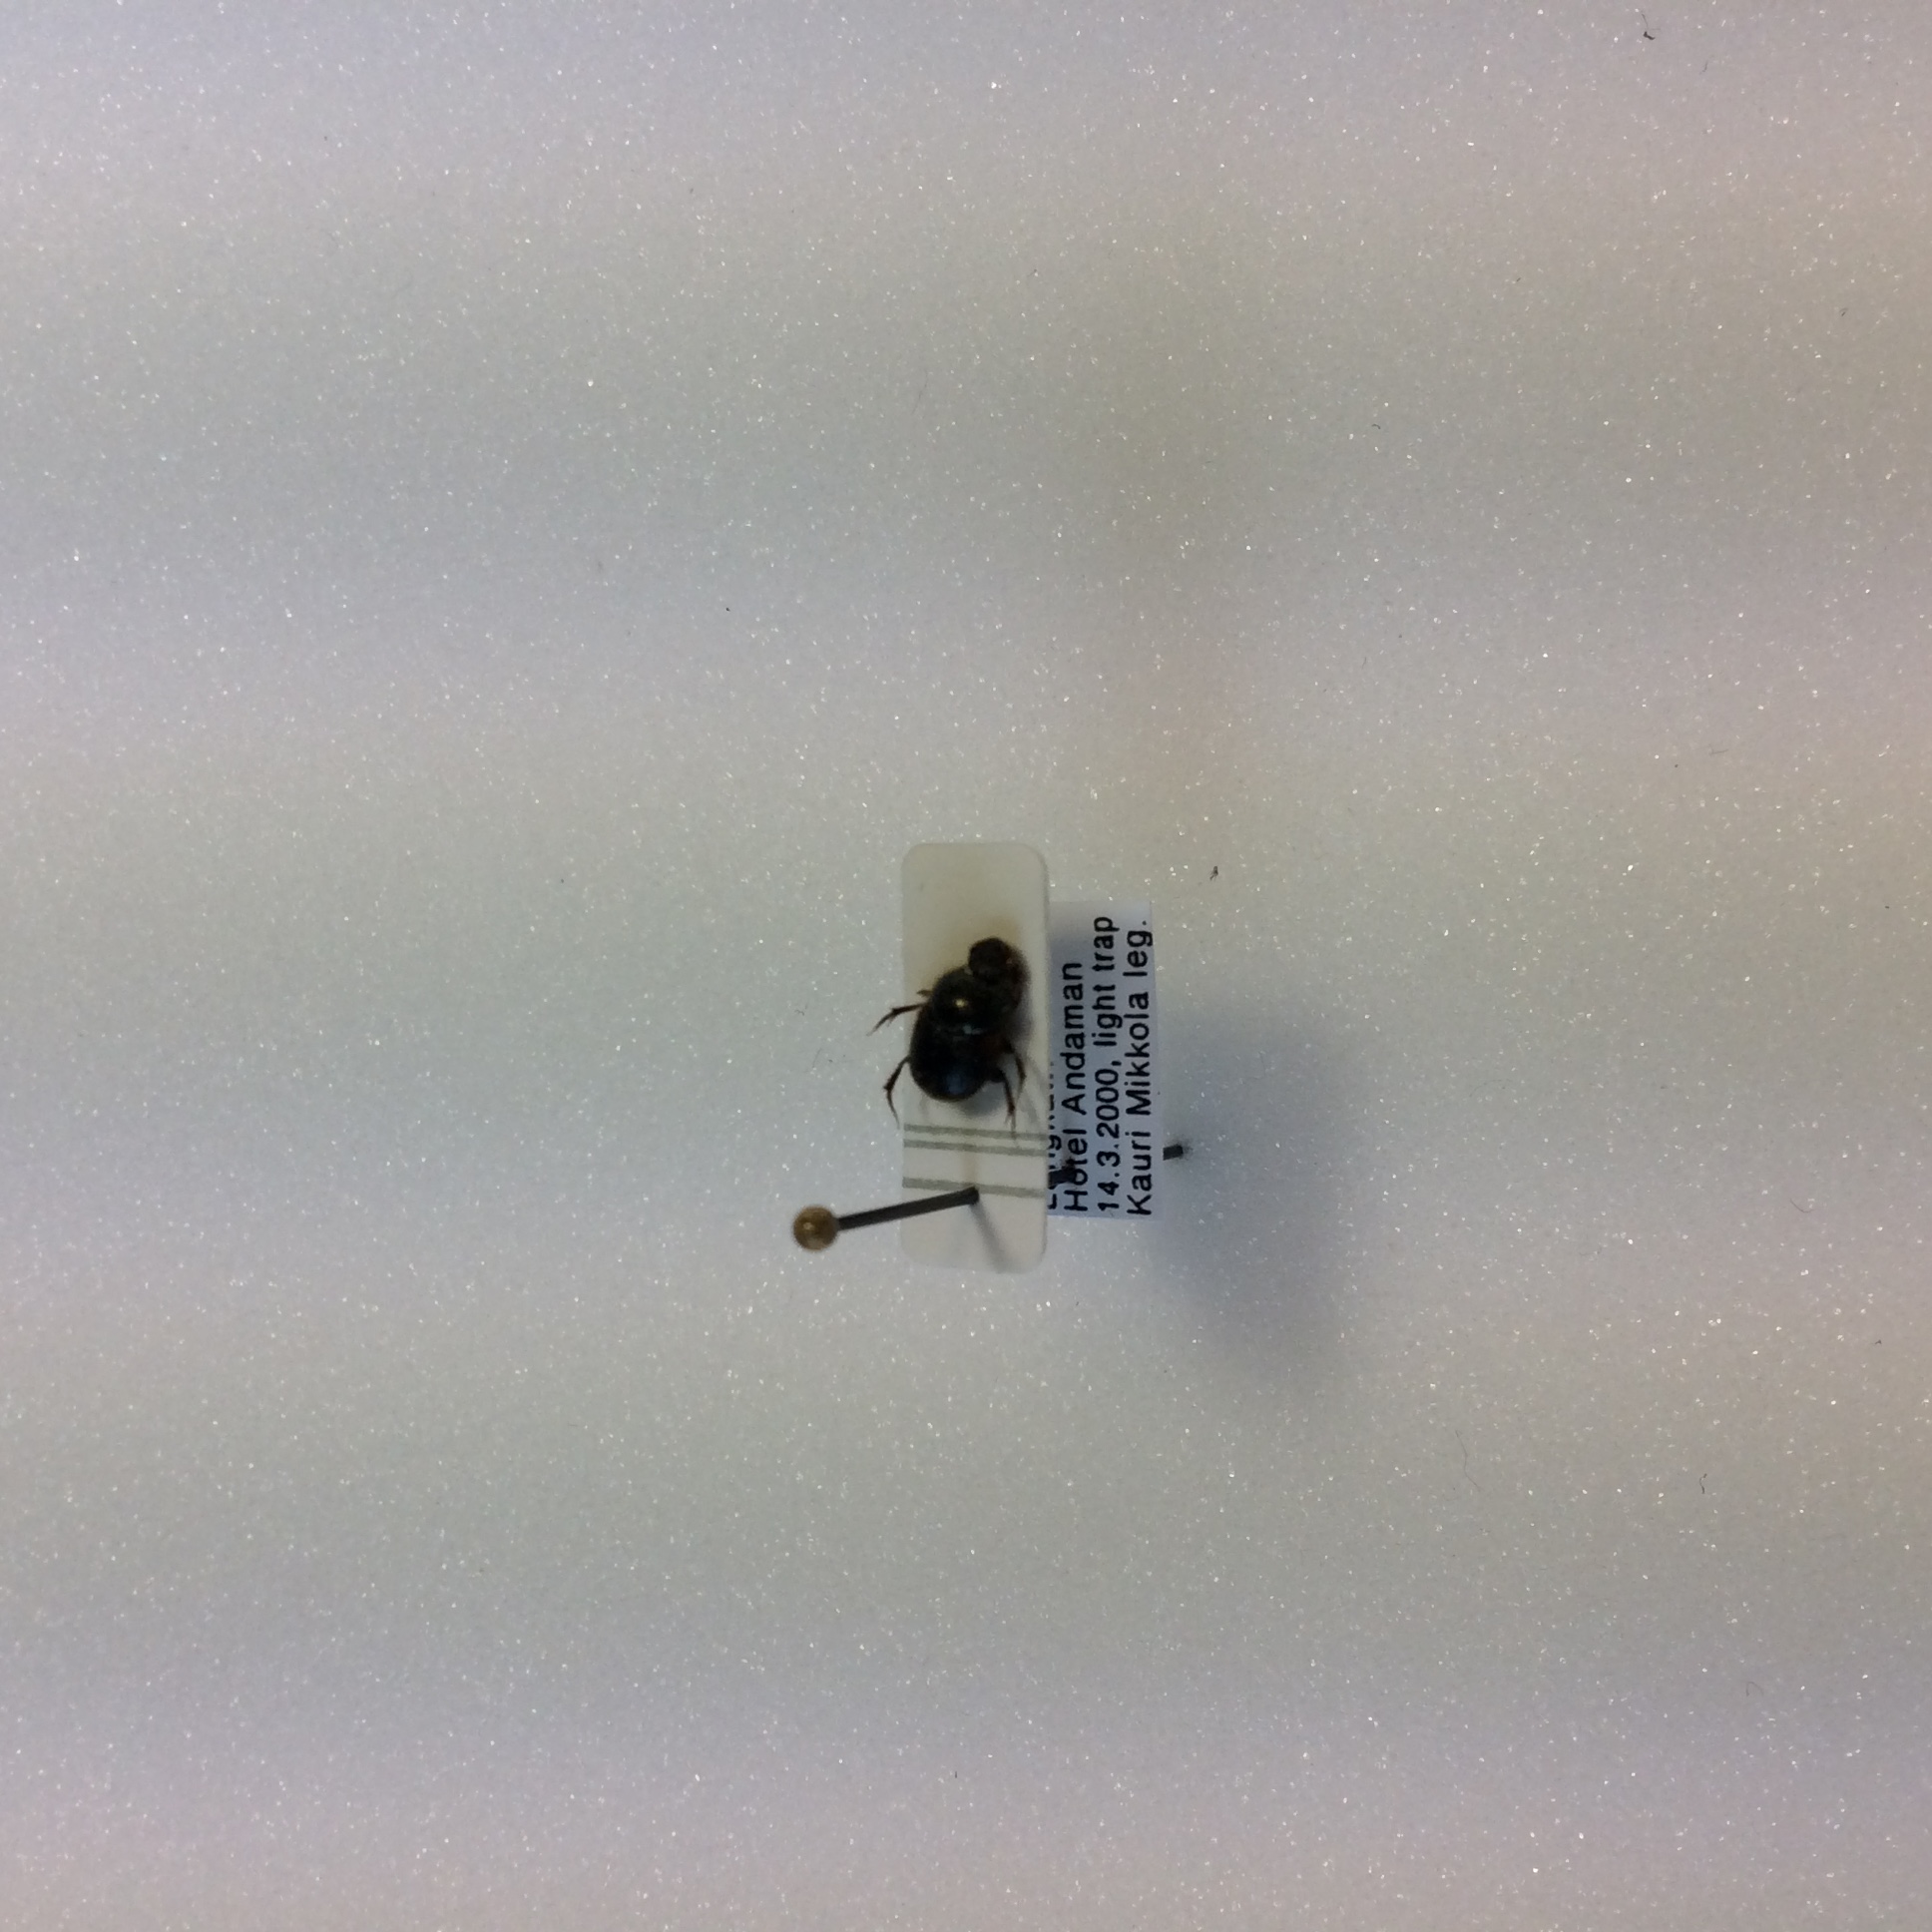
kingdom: Animalia
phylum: Arthropoda
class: Insecta
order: Coleoptera
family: Scarabaeidae
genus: Onthophagus
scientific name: Onthophagus
